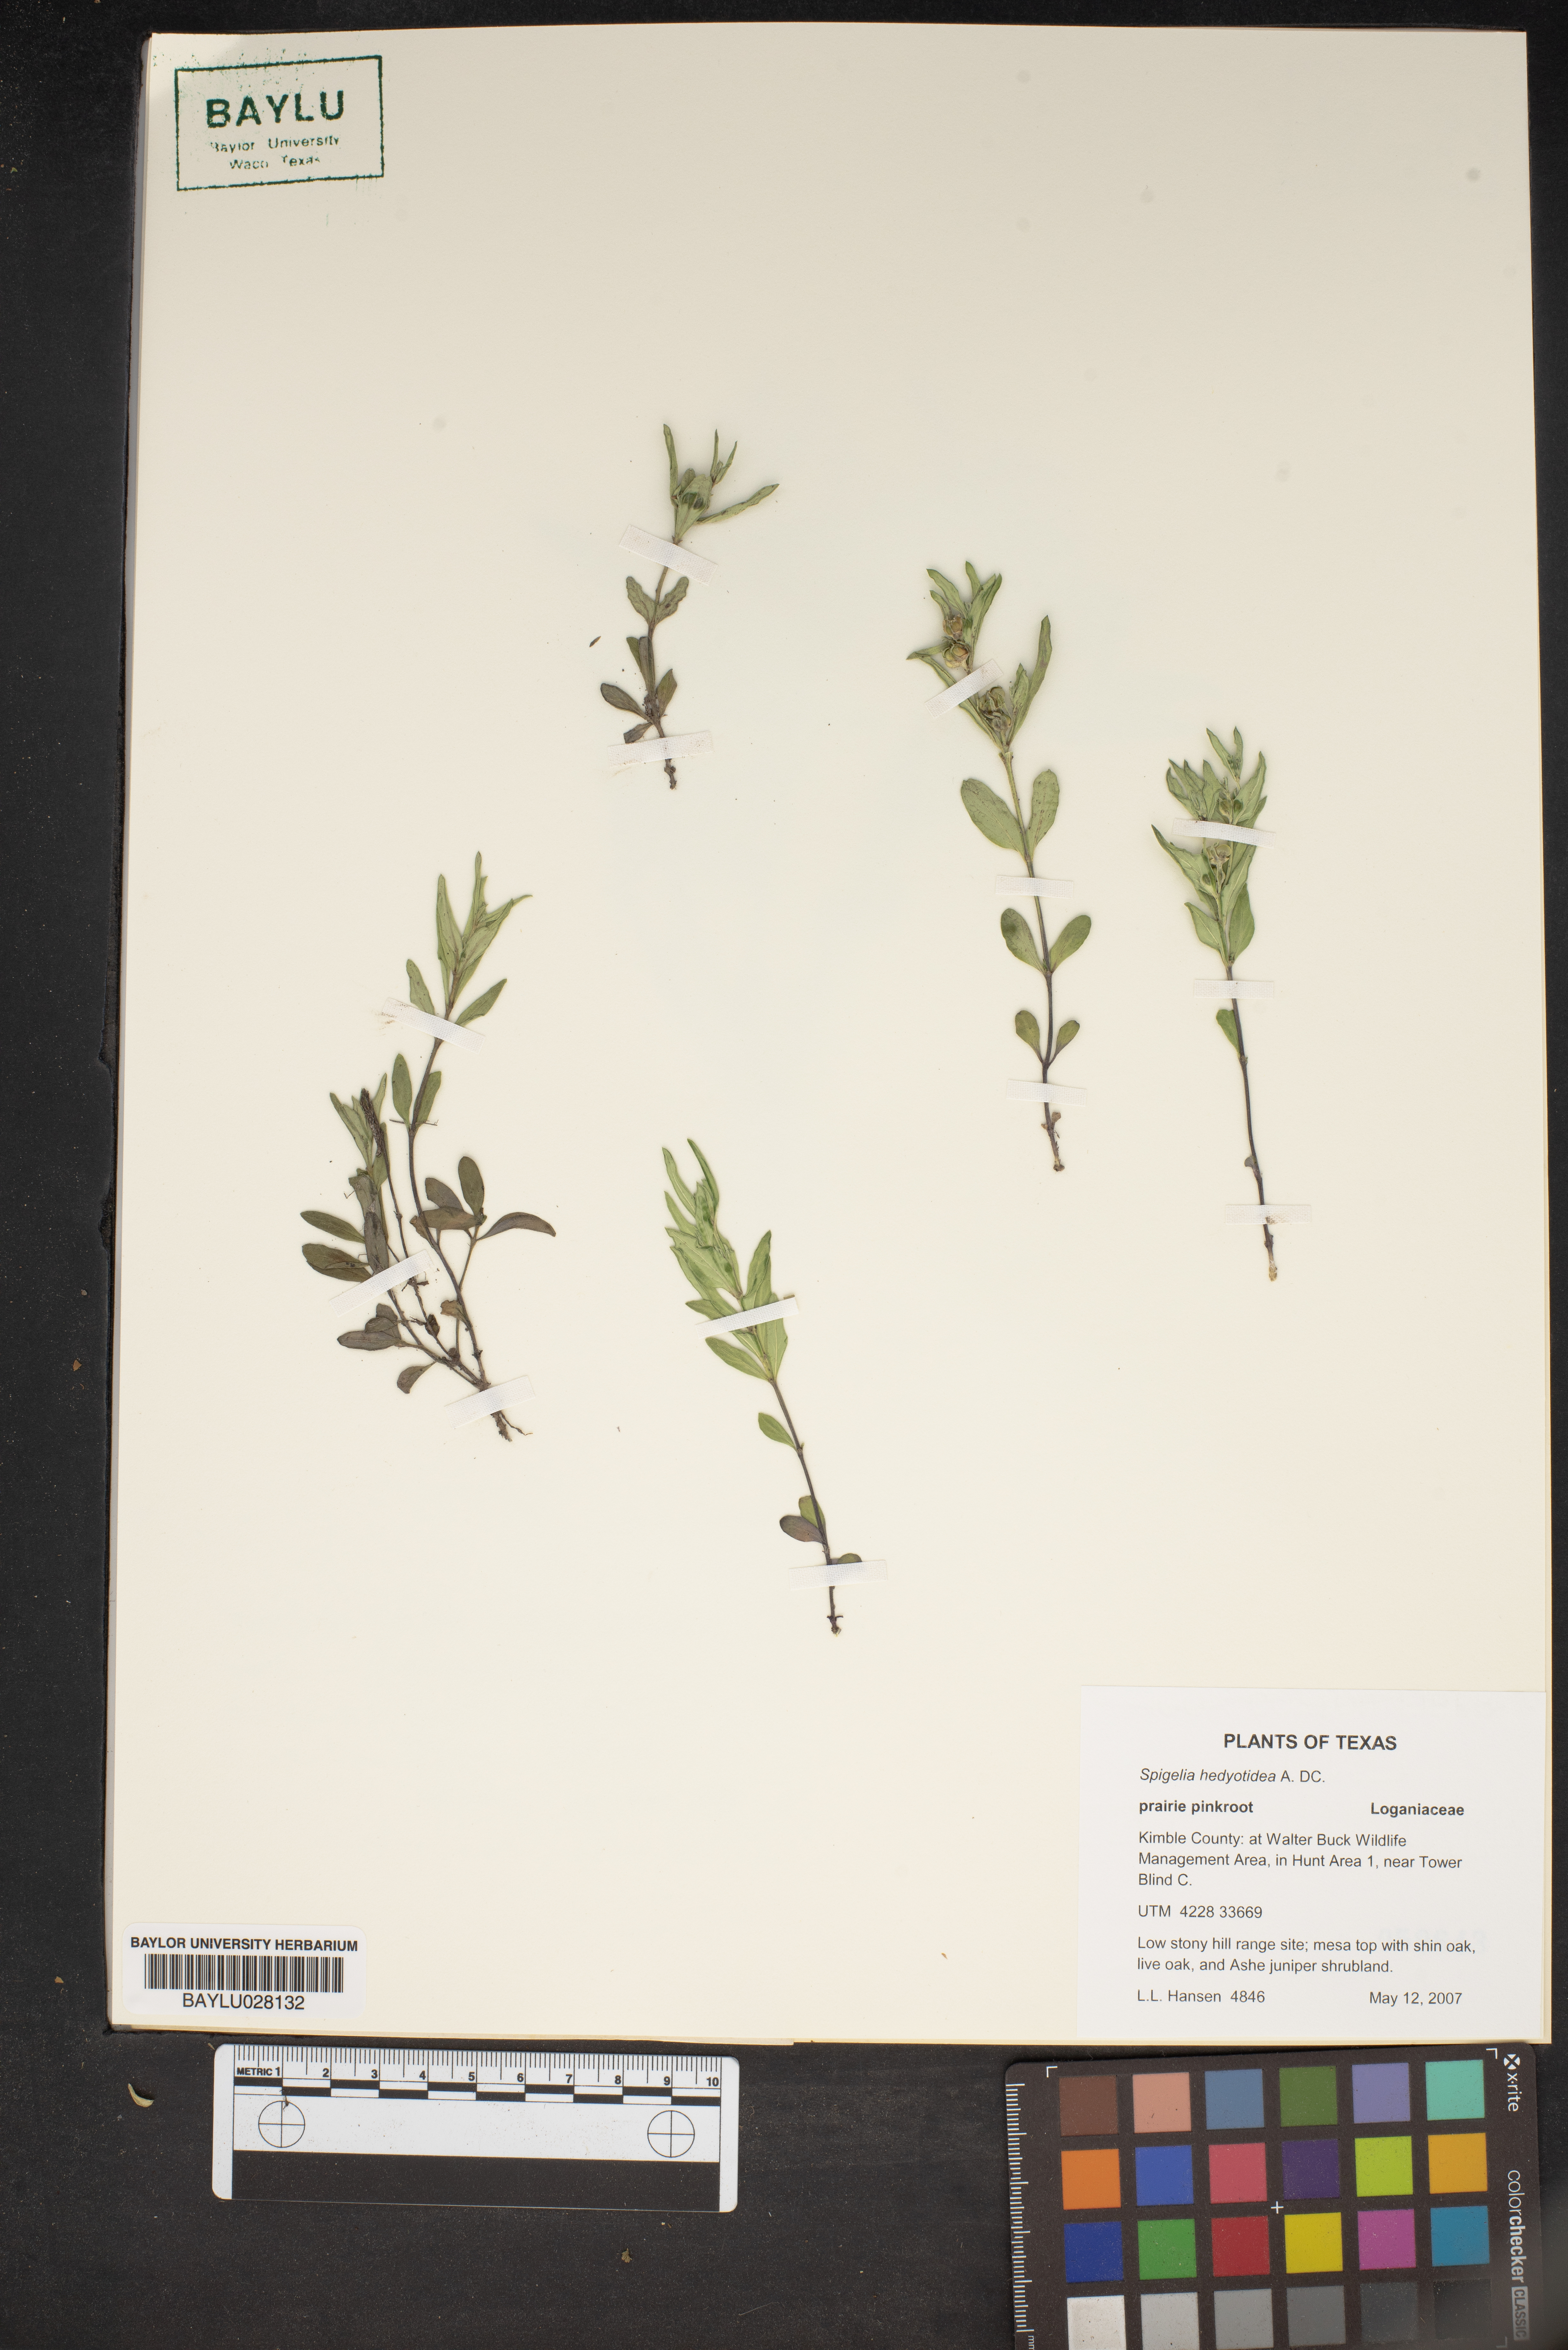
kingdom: Plantae
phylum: Tracheophyta
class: Magnoliopsida
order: Gentianales
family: Loganiaceae
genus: Spigelia
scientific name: Spigelia hedyotidea
